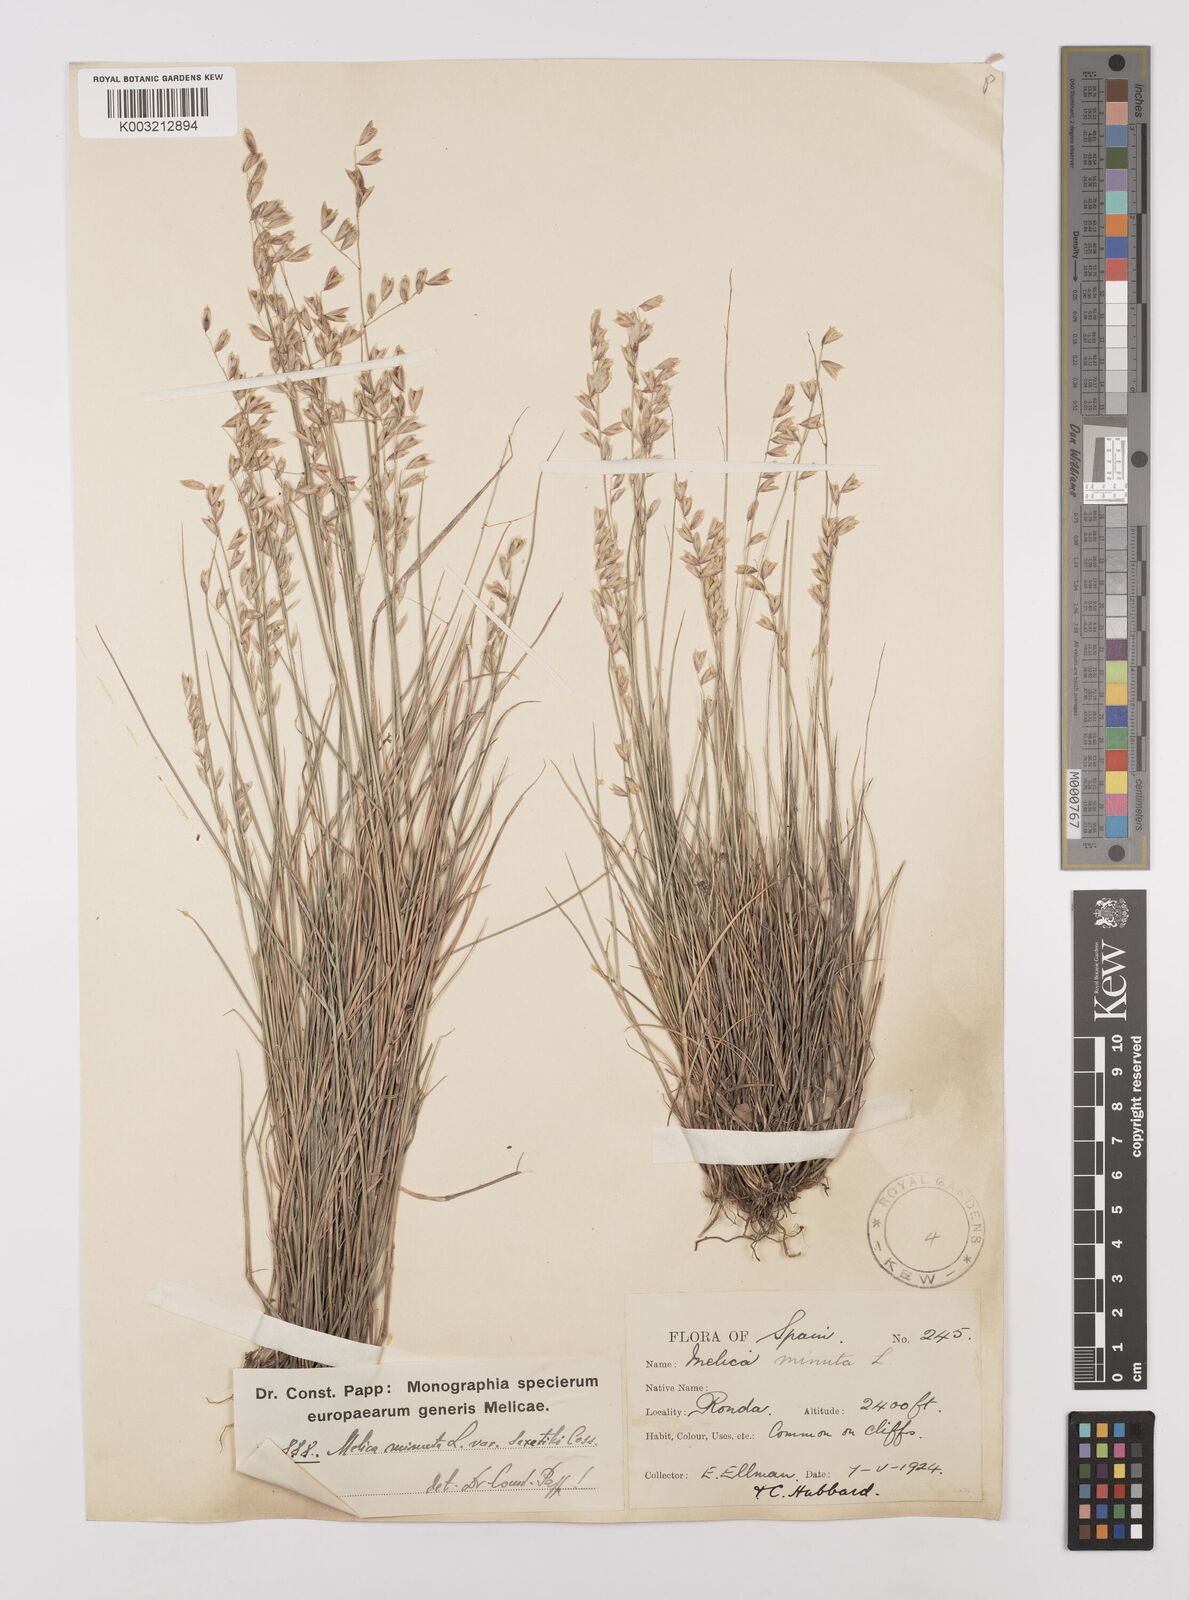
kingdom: Plantae
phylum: Tracheophyta
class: Liliopsida
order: Poales
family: Poaceae
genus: Melica
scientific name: Melica minuta
